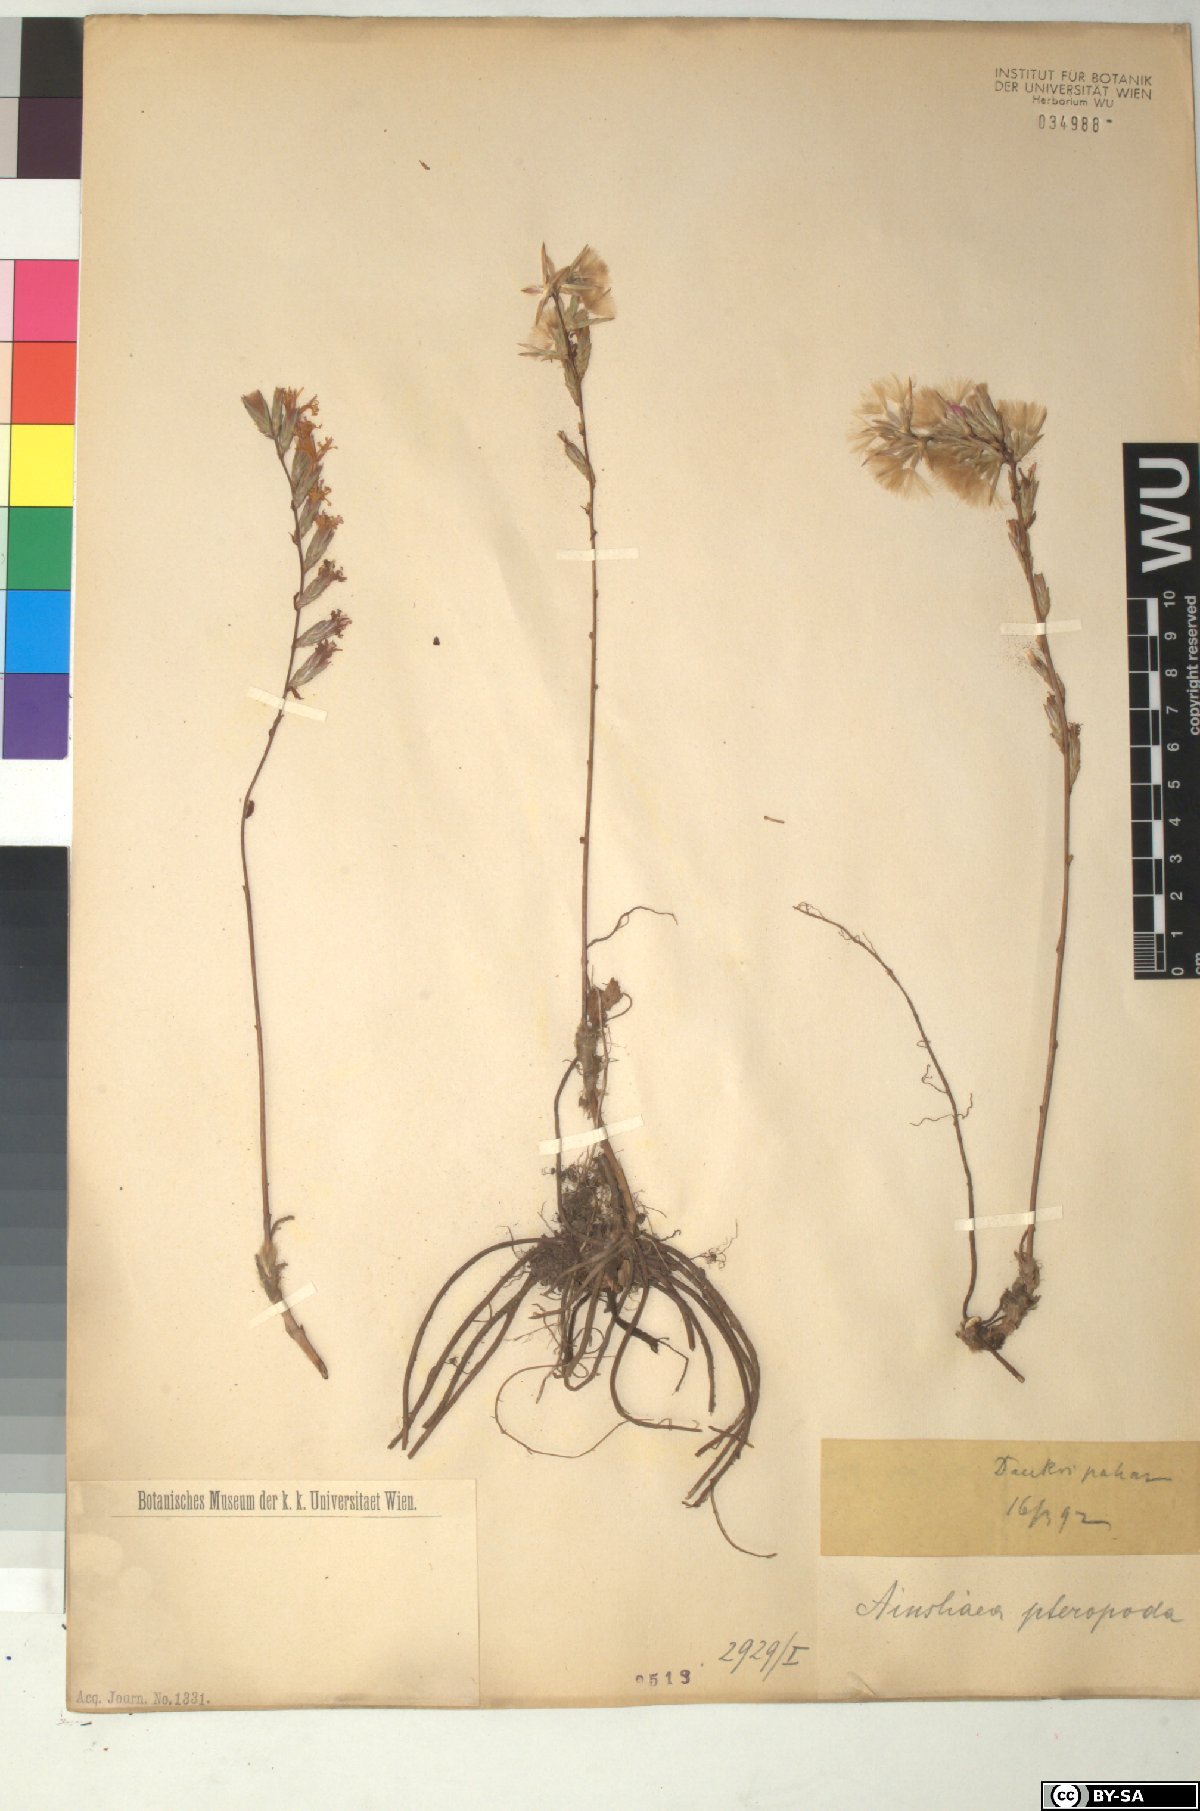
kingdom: Plantae
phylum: Tracheophyta
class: Magnoliopsida
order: Asterales
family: Asteraceae
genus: Ainsliaea
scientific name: Ainsliaea latifolia
